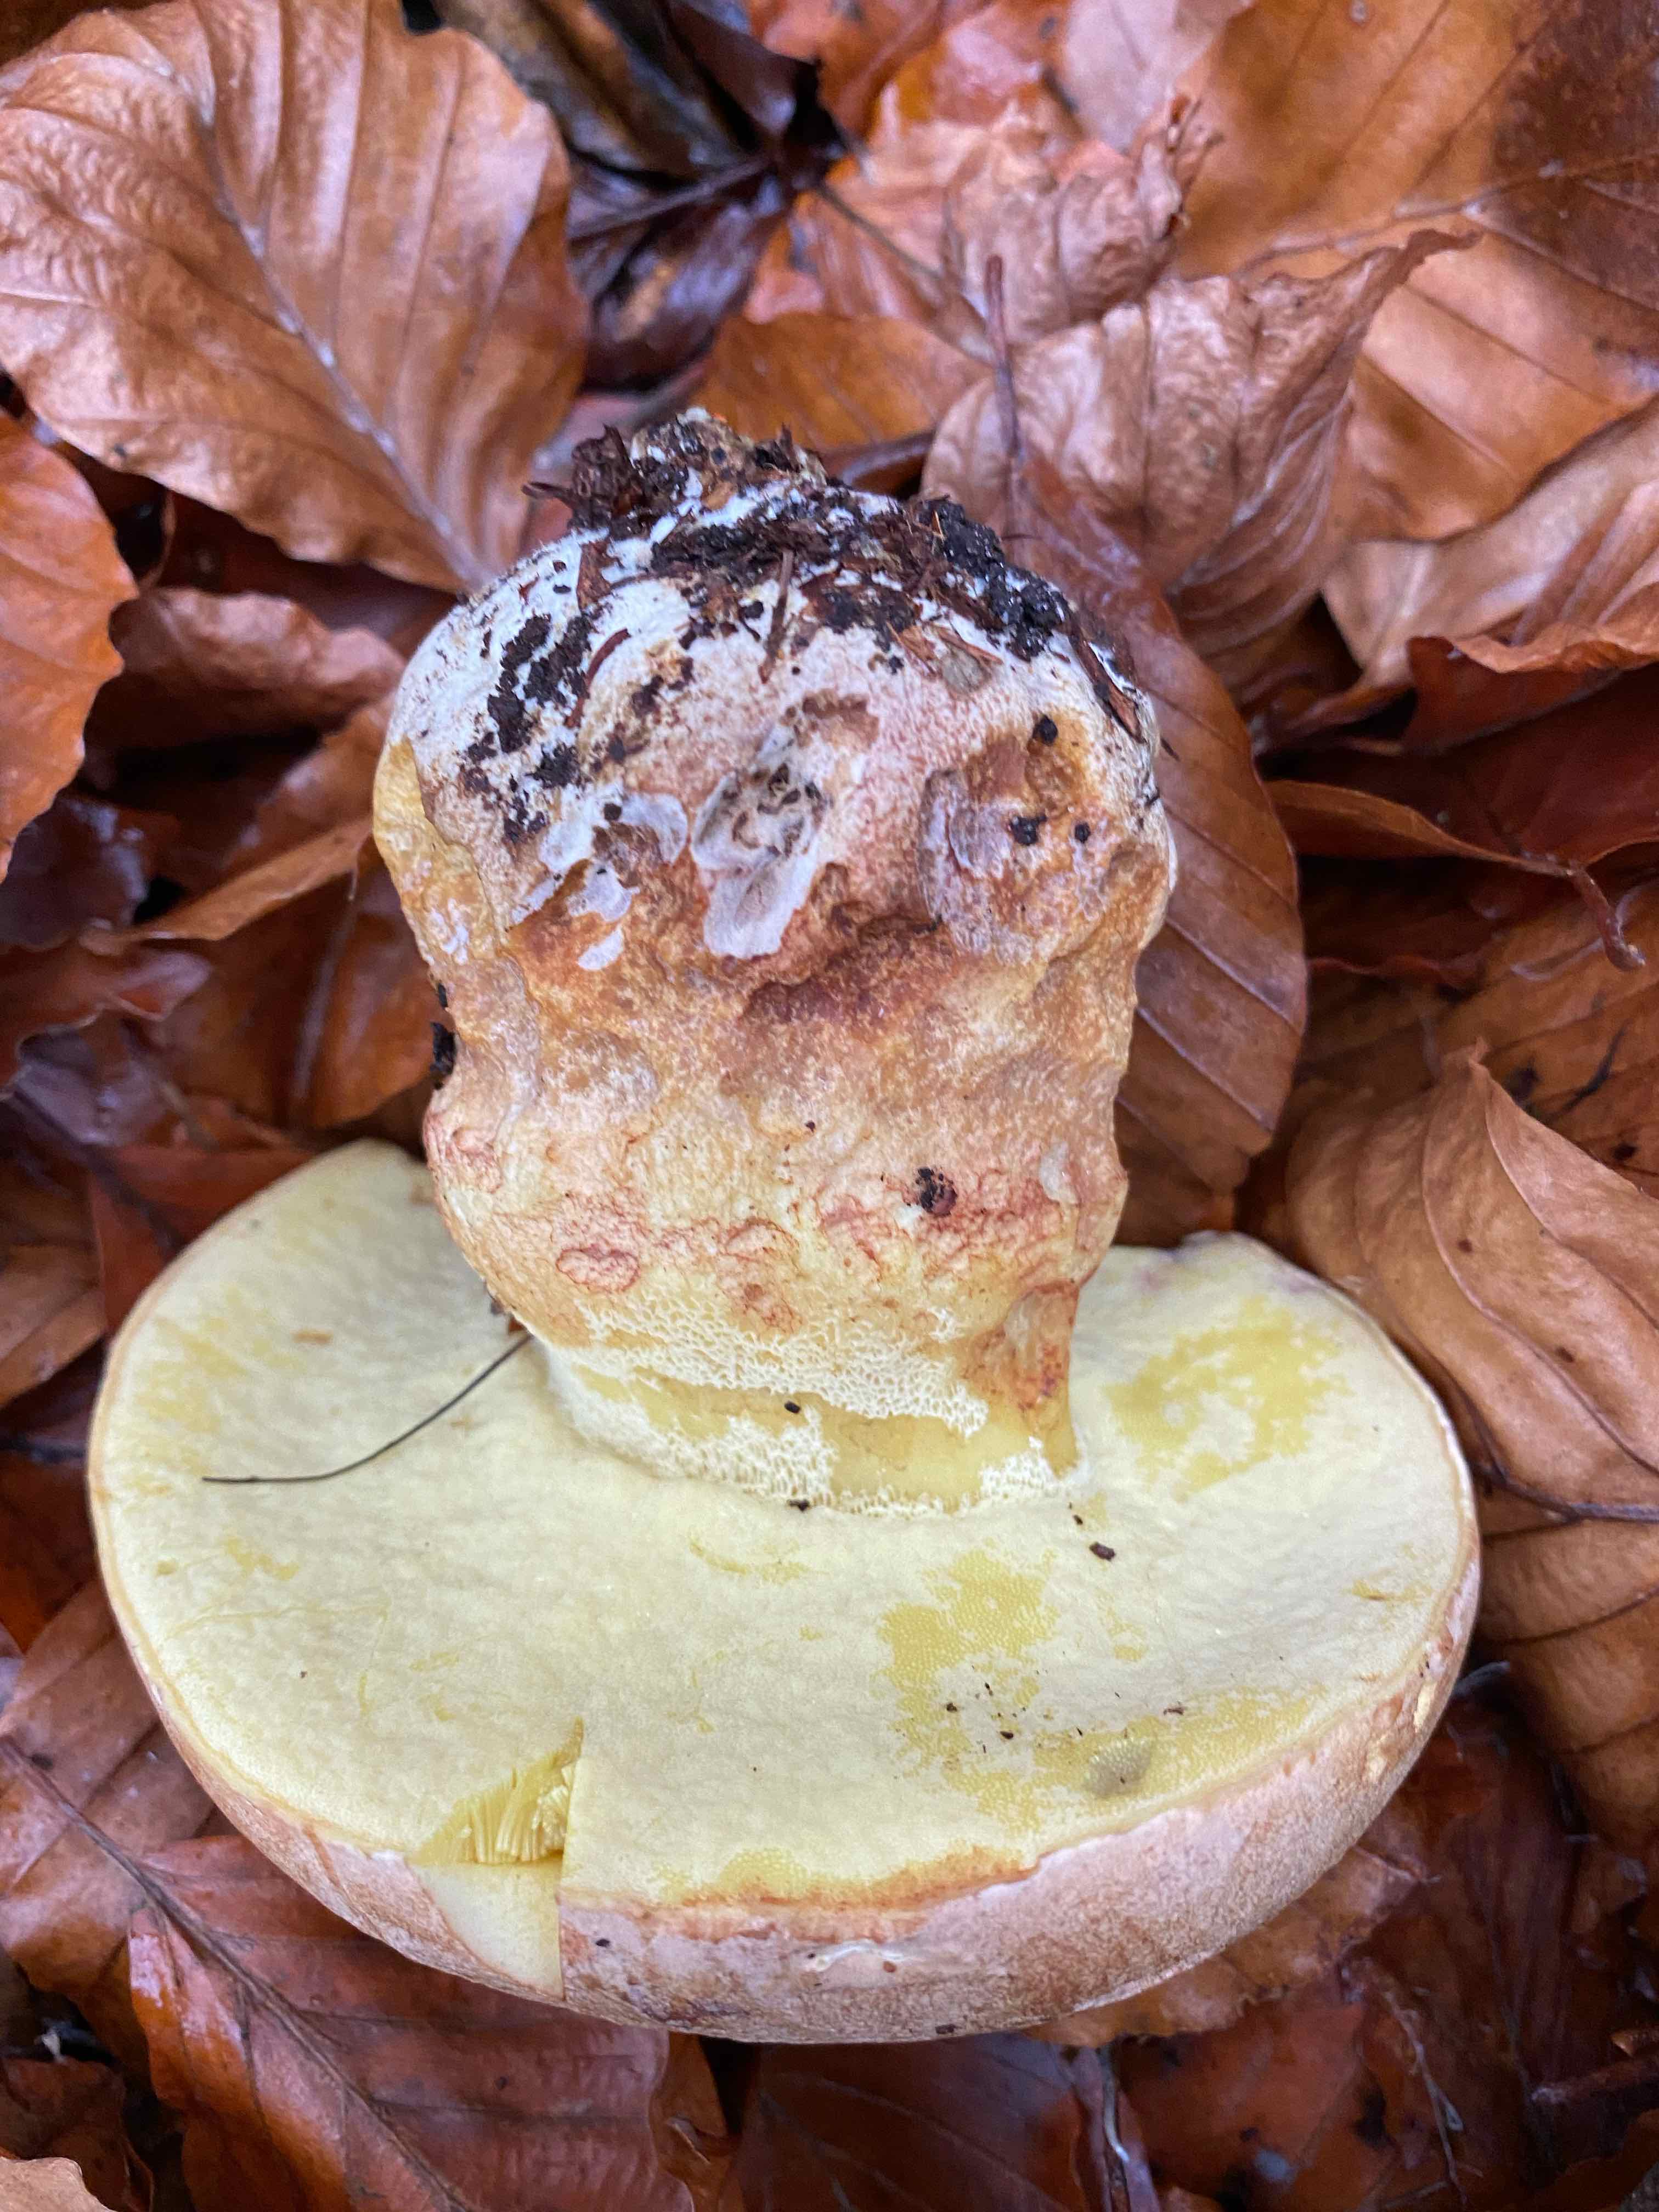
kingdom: Fungi
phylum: Basidiomycota
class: Agaricomycetes
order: Boletales
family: Boletaceae
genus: Butyriboletus
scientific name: Butyriboletus appendiculatus
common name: tenstokket rørhat
